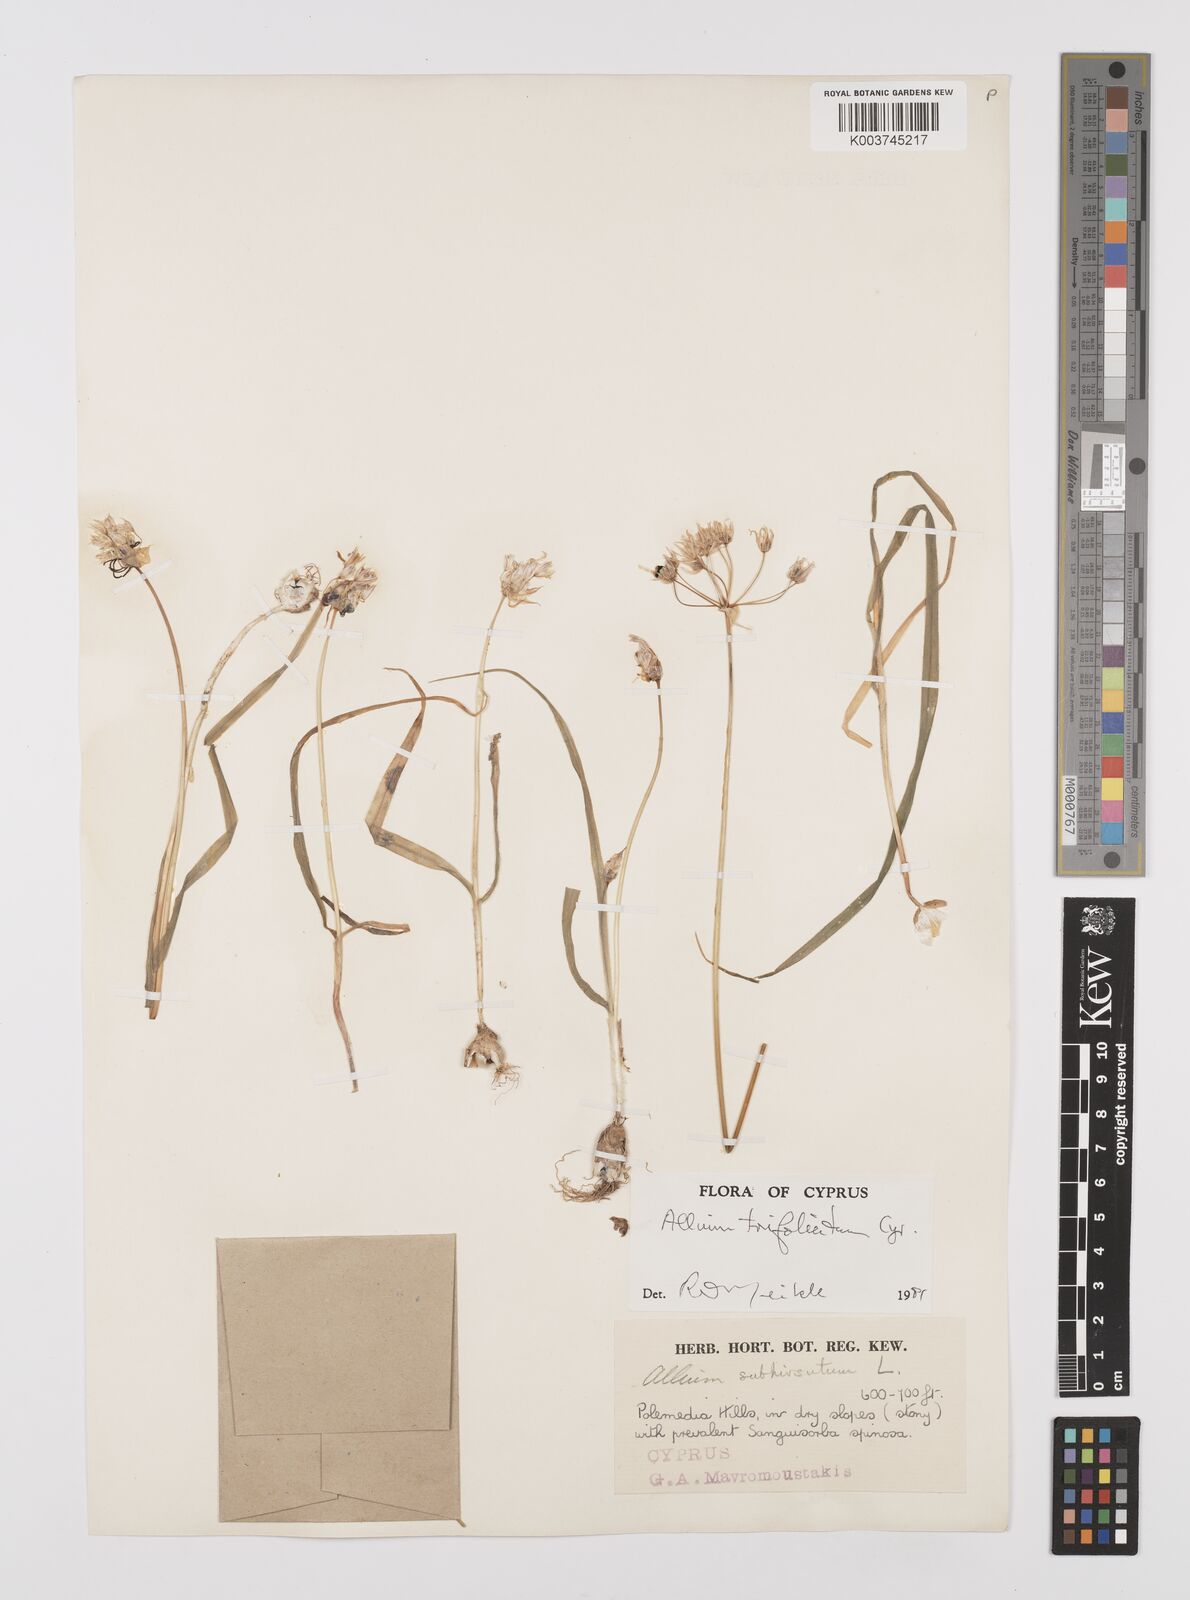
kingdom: Plantae
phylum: Tracheophyta
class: Liliopsida
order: Asparagales
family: Amaryllidaceae
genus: Allium
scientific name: Allium trifoliatum
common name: Pink garlic
